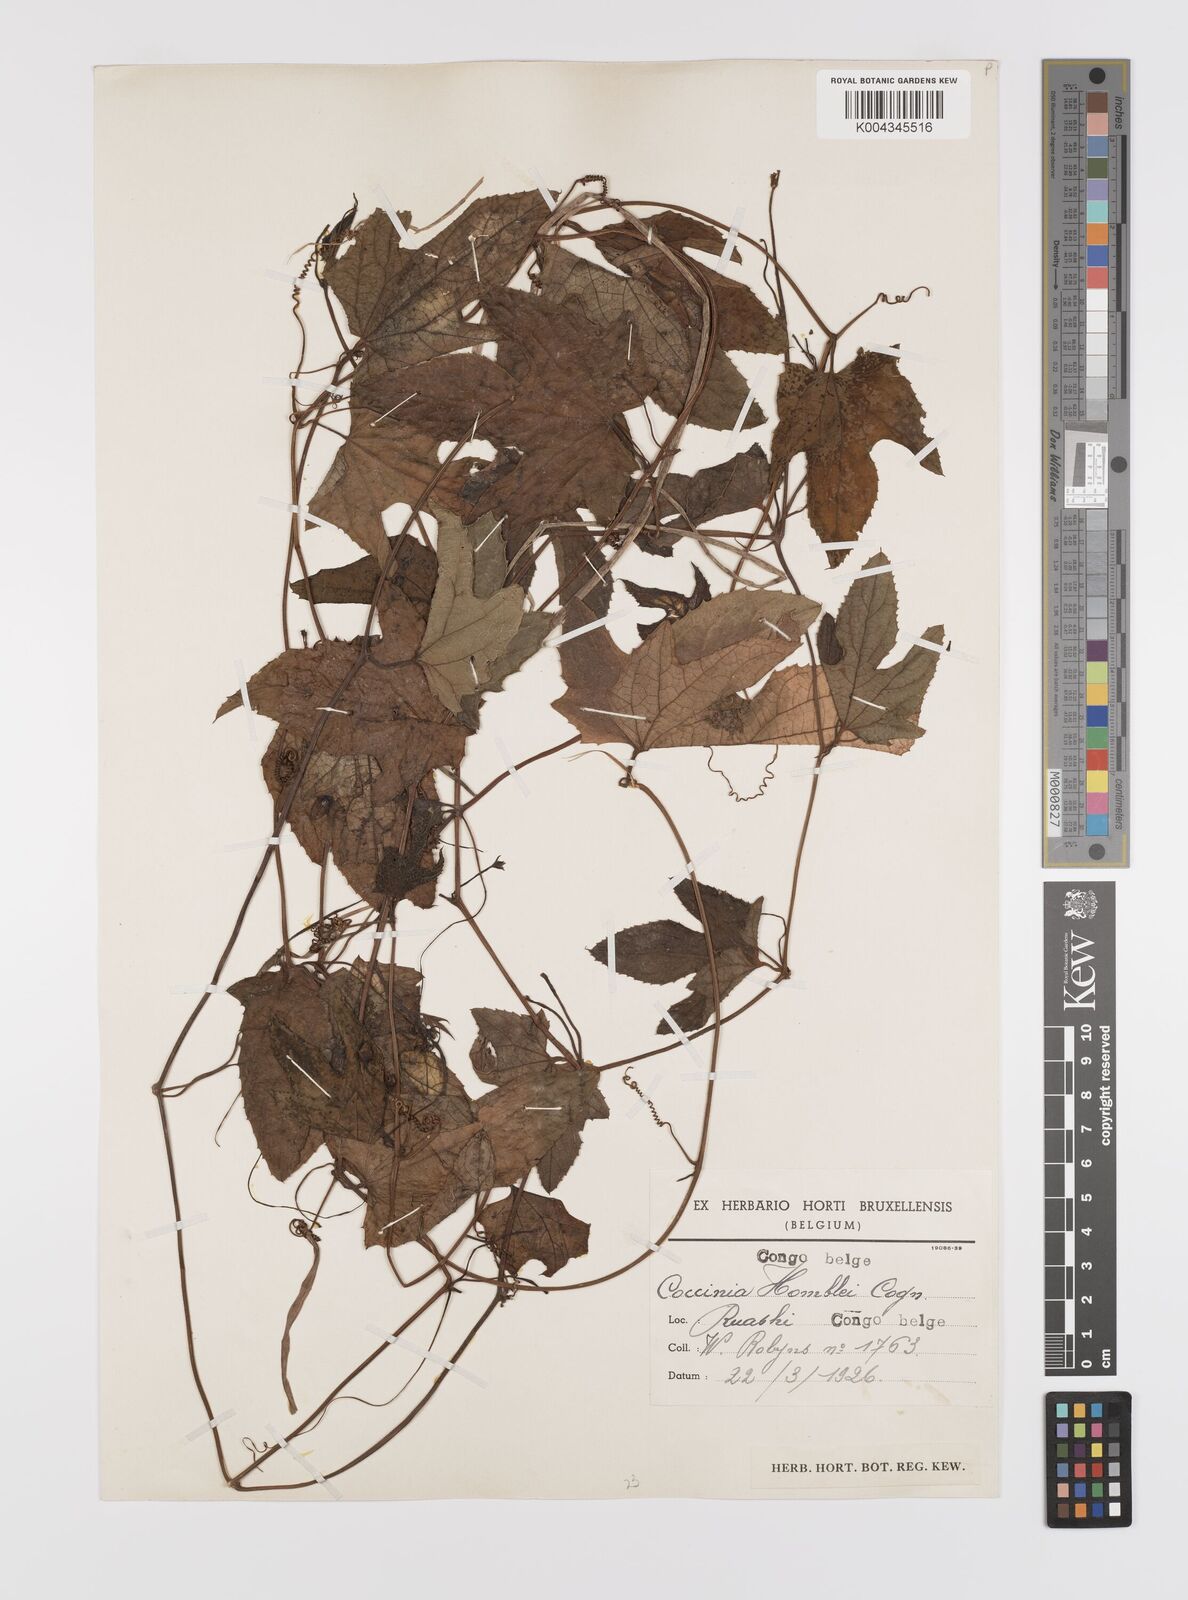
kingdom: Plantae
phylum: Tracheophyta
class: Magnoliopsida
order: Cucurbitales
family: Cucurbitaceae
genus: Coccinia
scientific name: Coccinia adoensis
